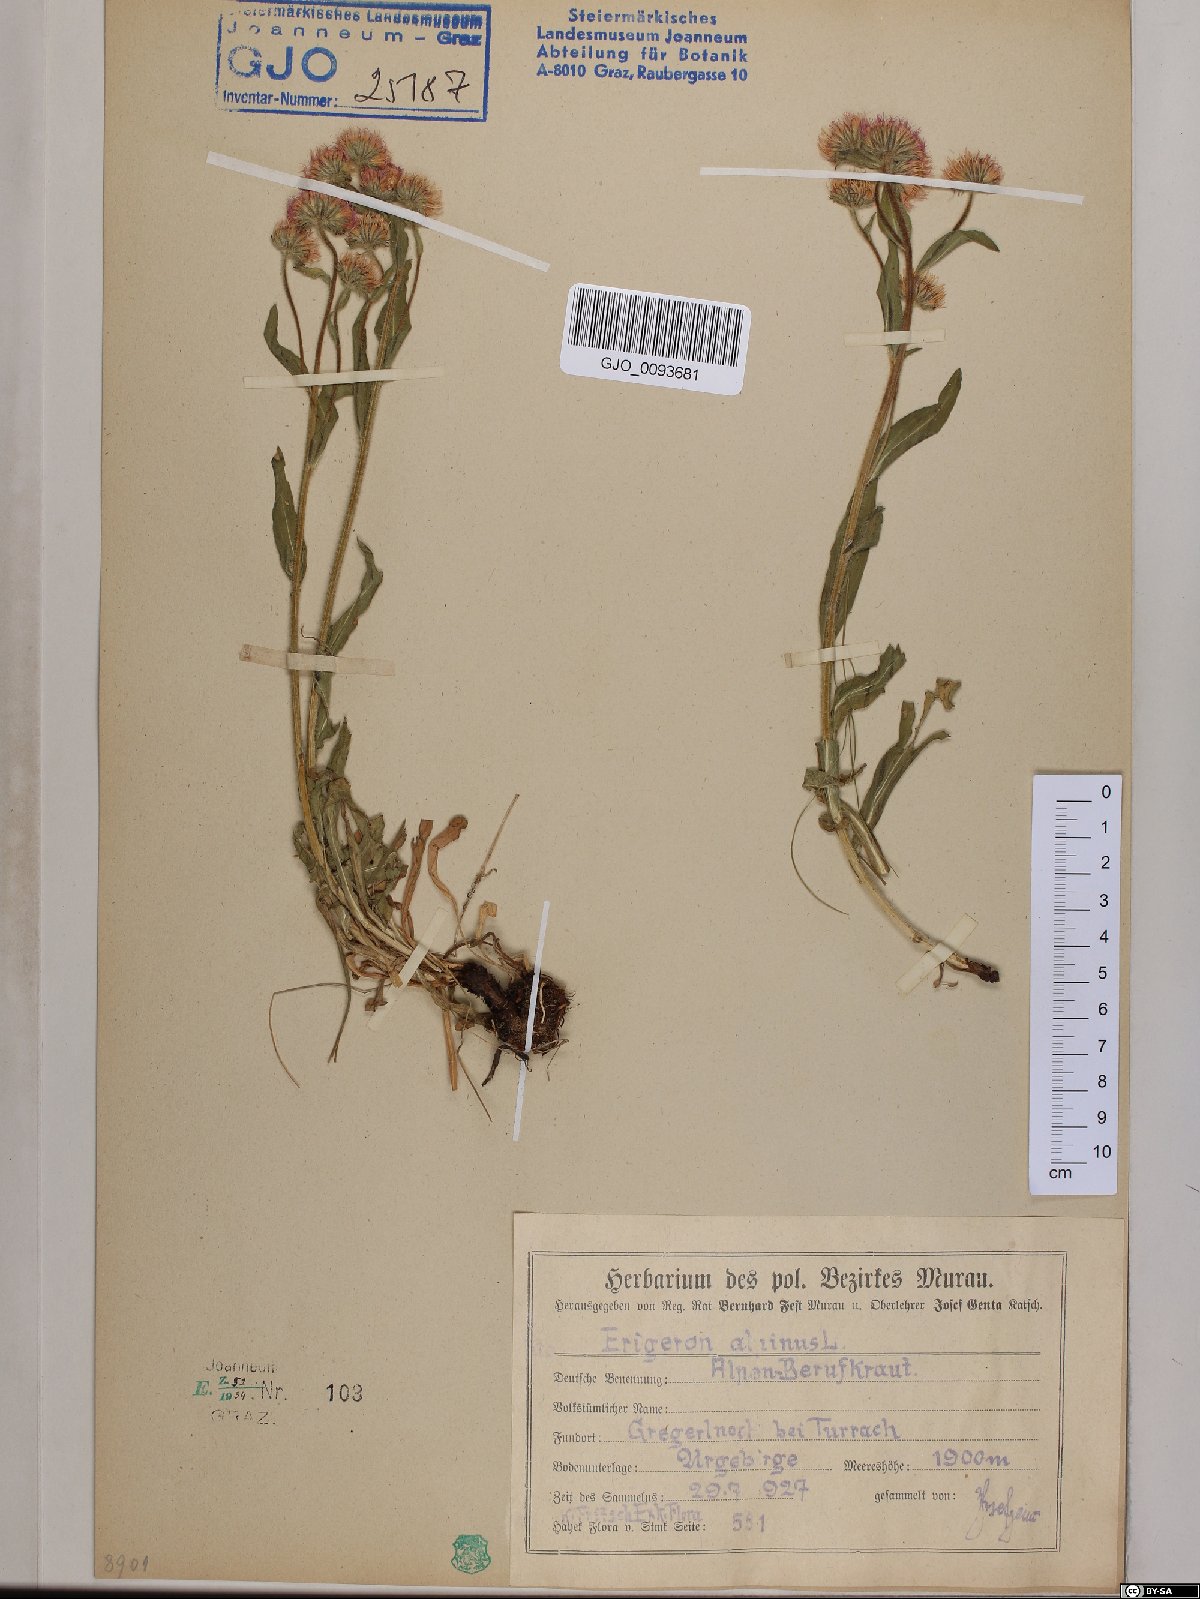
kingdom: Plantae
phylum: Tracheophyta
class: Magnoliopsida
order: Asterales
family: Asteraceae
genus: Erigeron
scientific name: Erigeron alpinus
